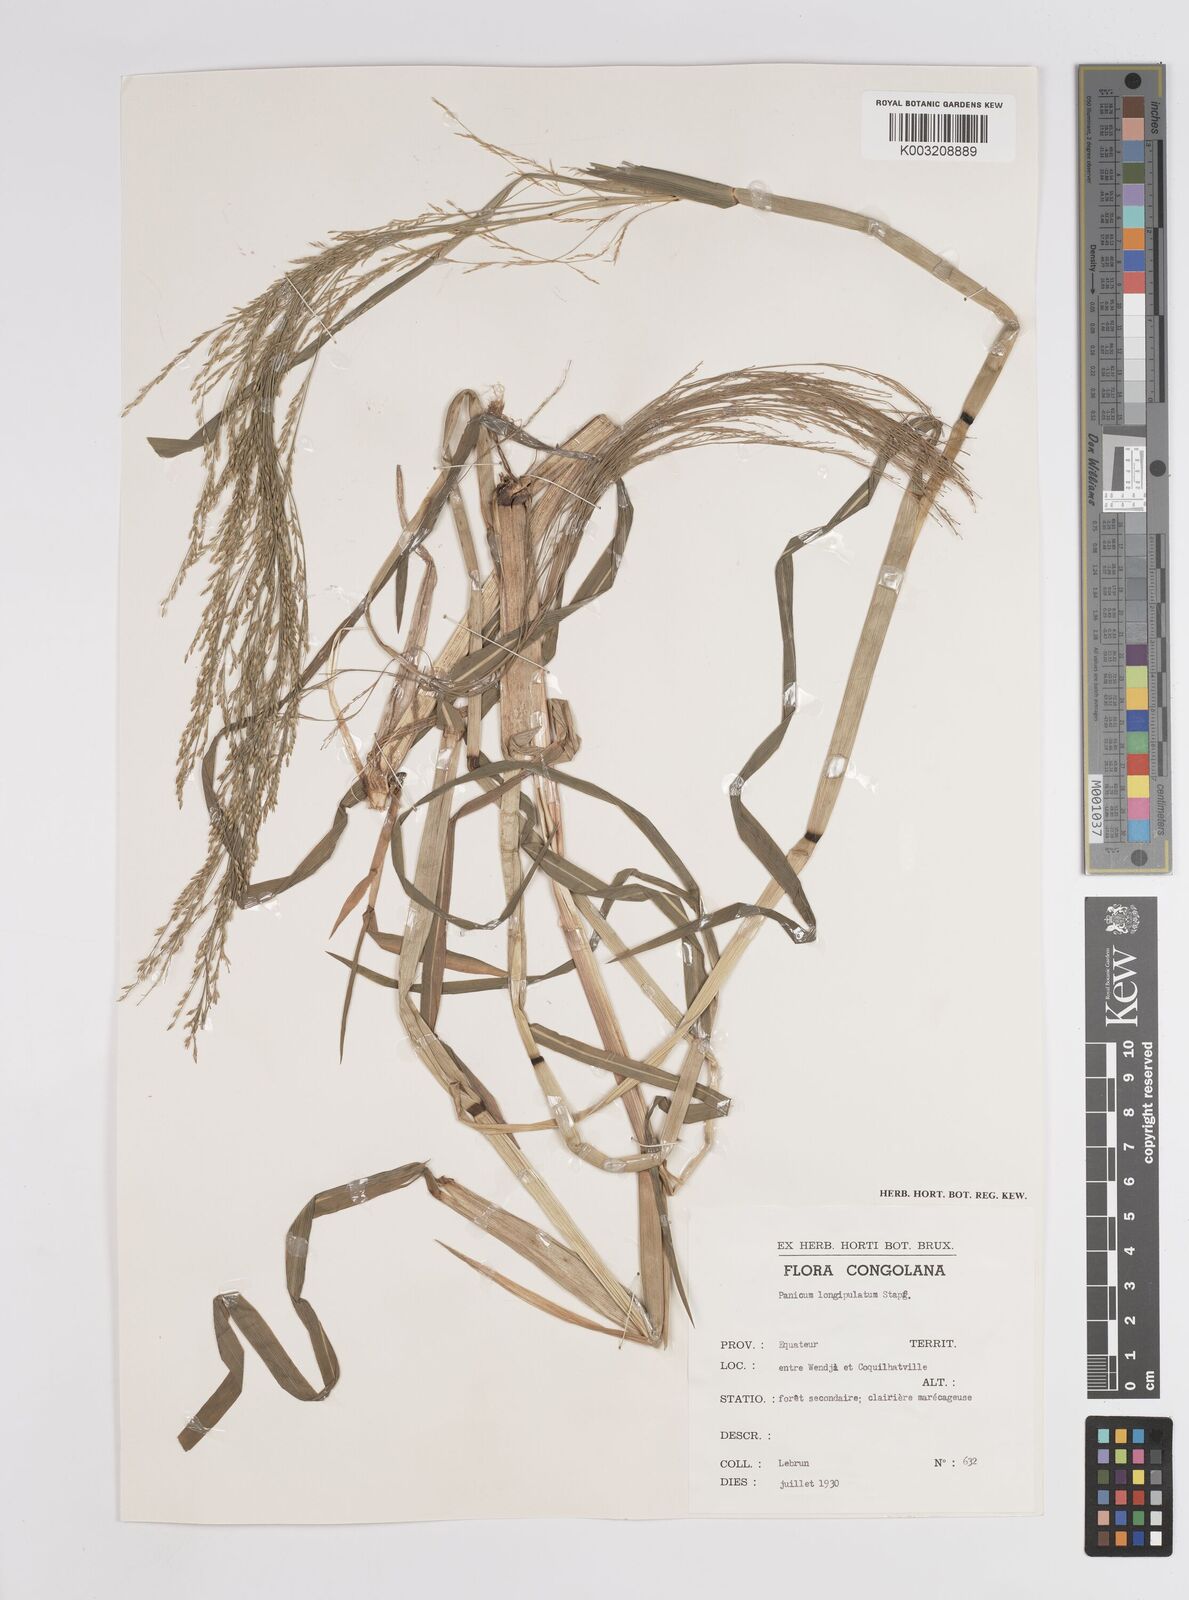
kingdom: Plantae
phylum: Tracheophyta
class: Liliopsida
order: Poales
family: Poaceae
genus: Panicum
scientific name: Panicum subalbidum
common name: Elbow buffalo grass
